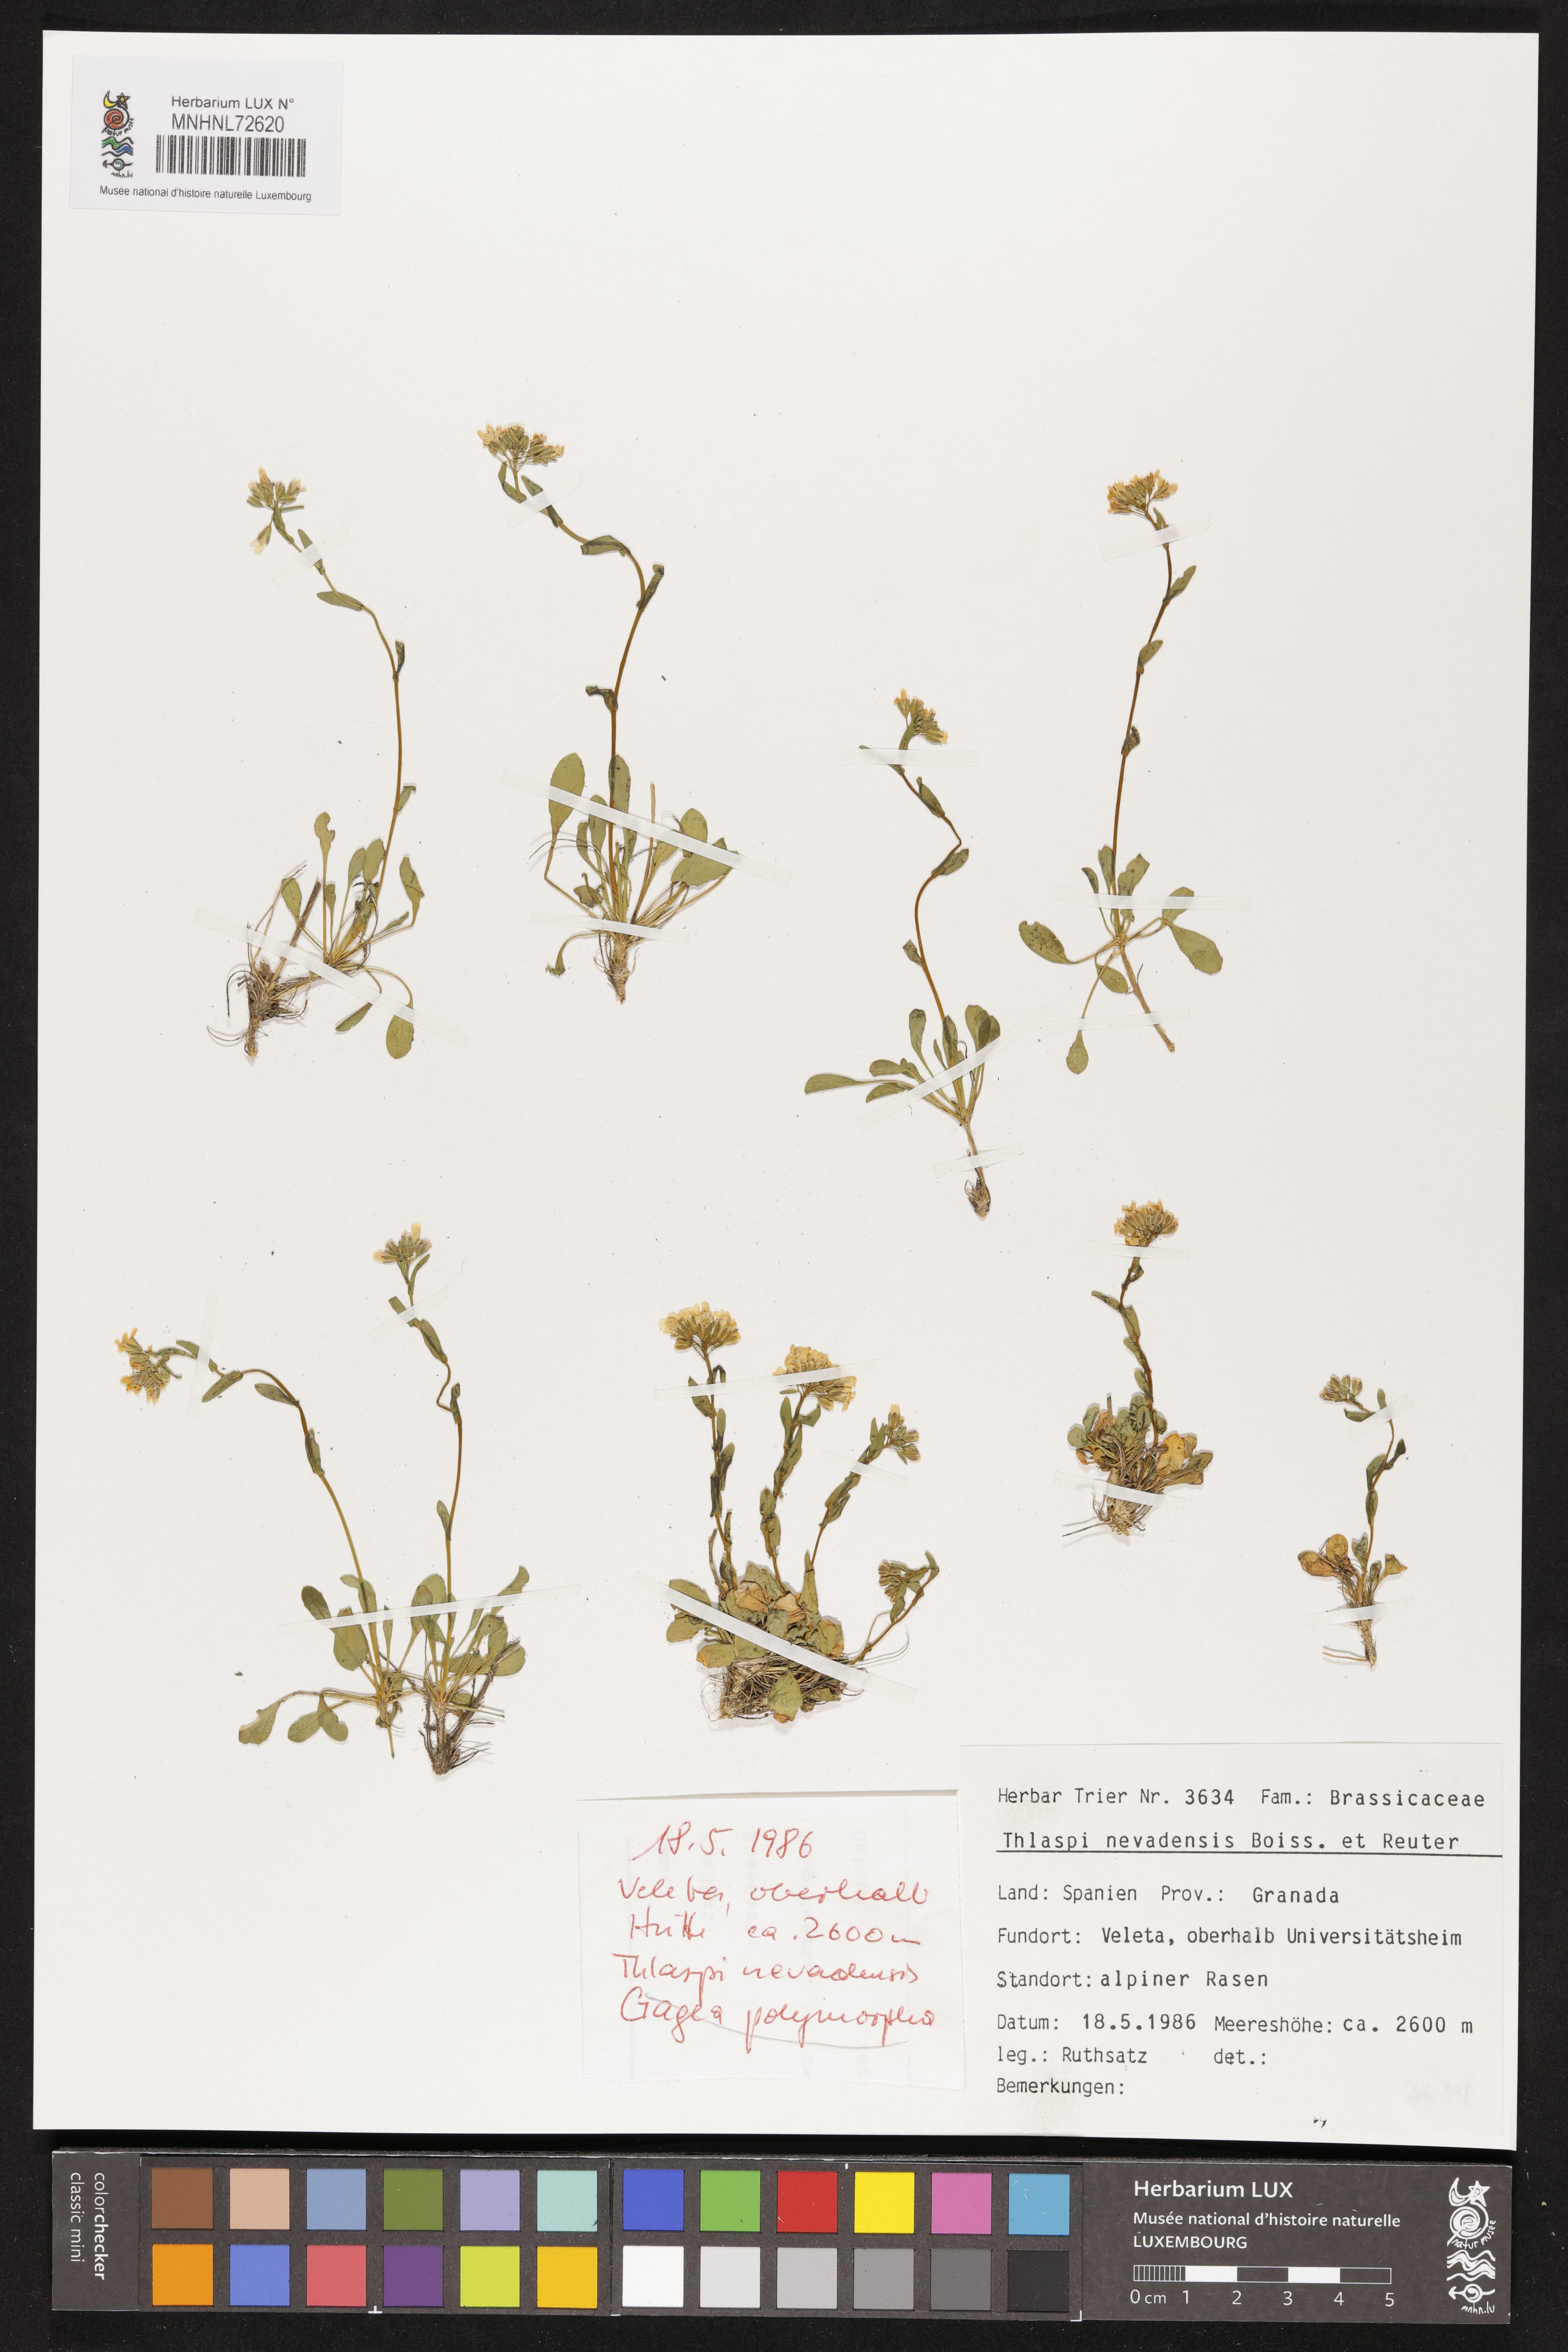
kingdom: Plantae
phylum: Tracheophyta
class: Magnoliopsida
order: Brassicales
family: Brassicaceae
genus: Noccaea
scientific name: Noccaea nevadensis
